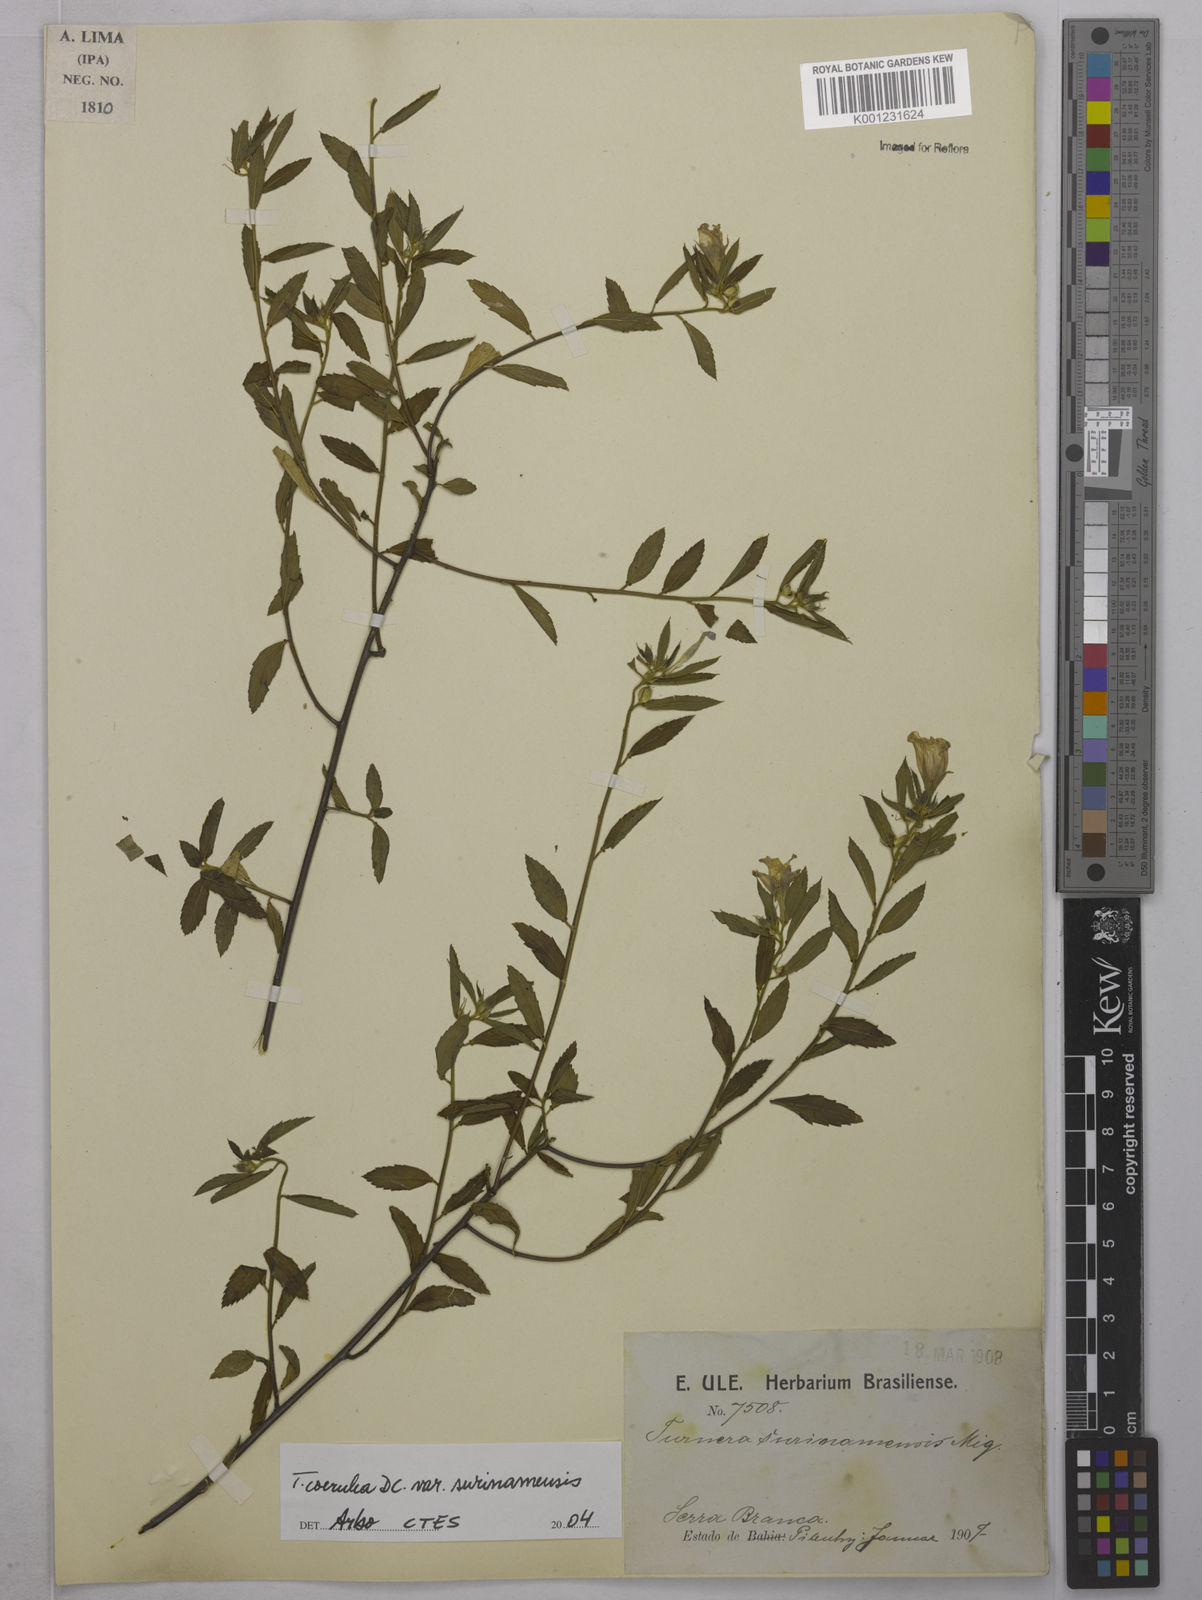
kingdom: Plantae
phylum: Tracheophyta
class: Magnoliopsida
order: Malpighiales
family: Turneraceae
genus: Turnera
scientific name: Turnera coerulea
